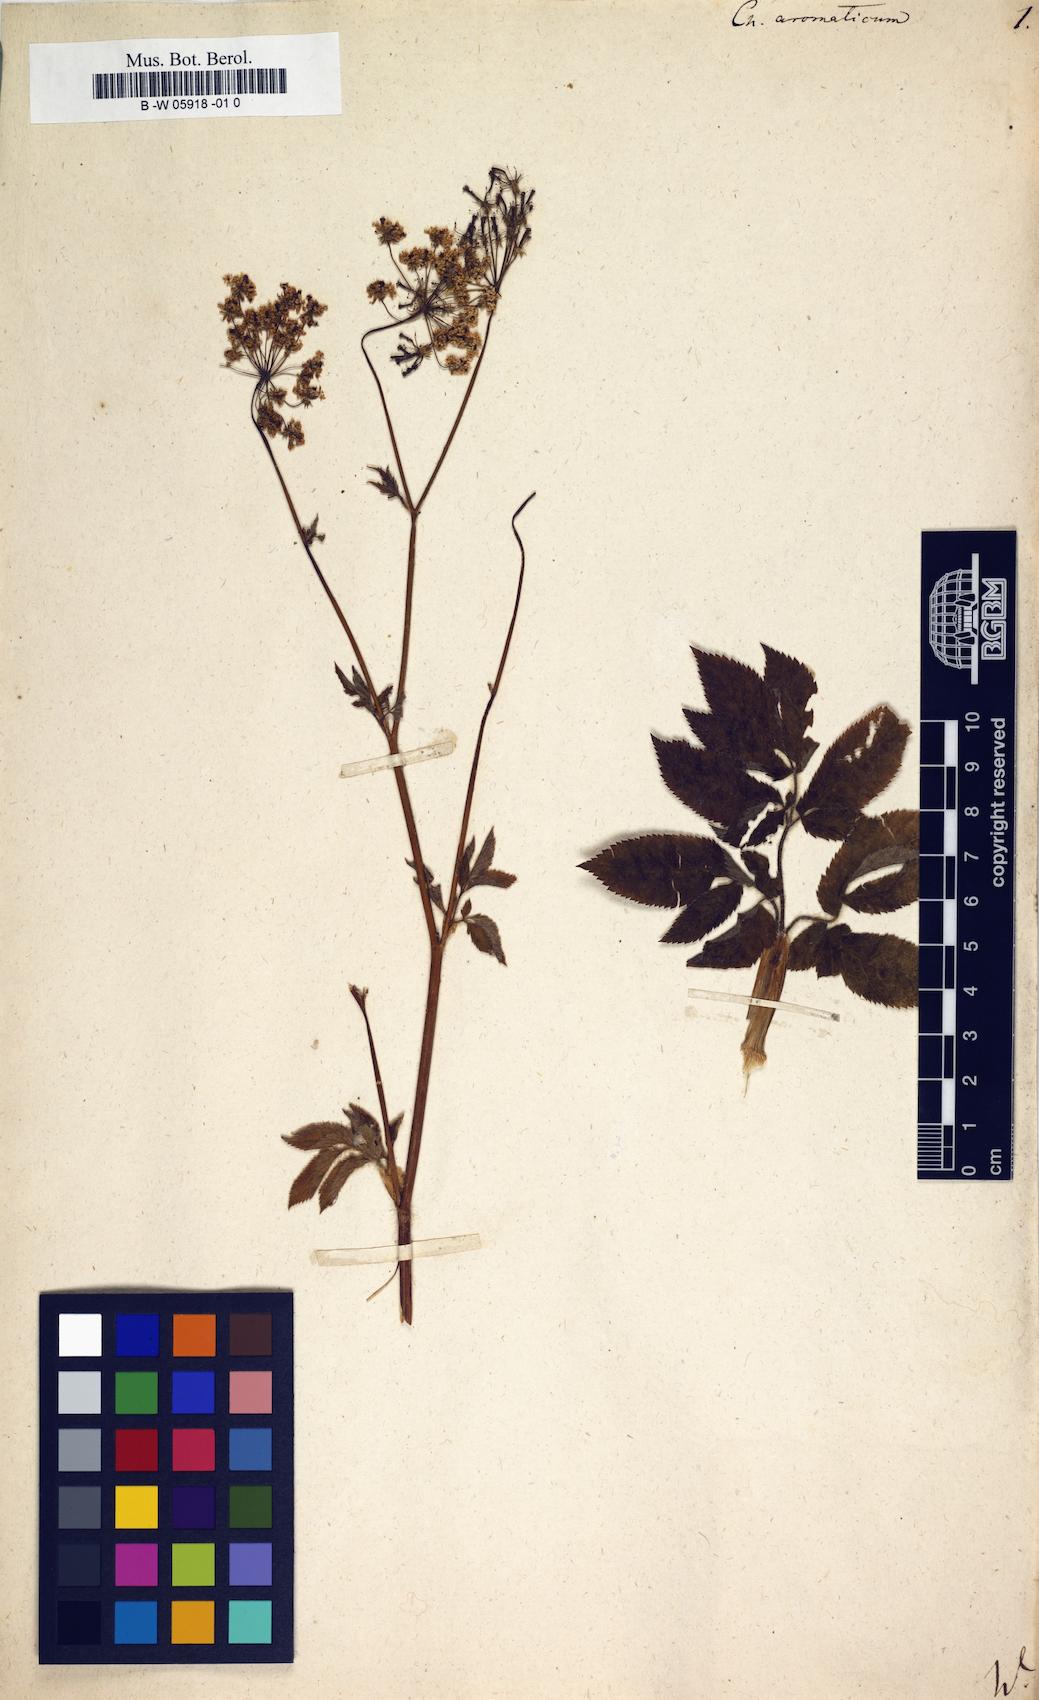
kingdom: Plantae
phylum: Tracheophyta
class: Magnoliopsida
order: Apiales
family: Apiaceae
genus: Chaerophyllum
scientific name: Chaerophyllum aromaticum
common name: Broadleaf chervil
